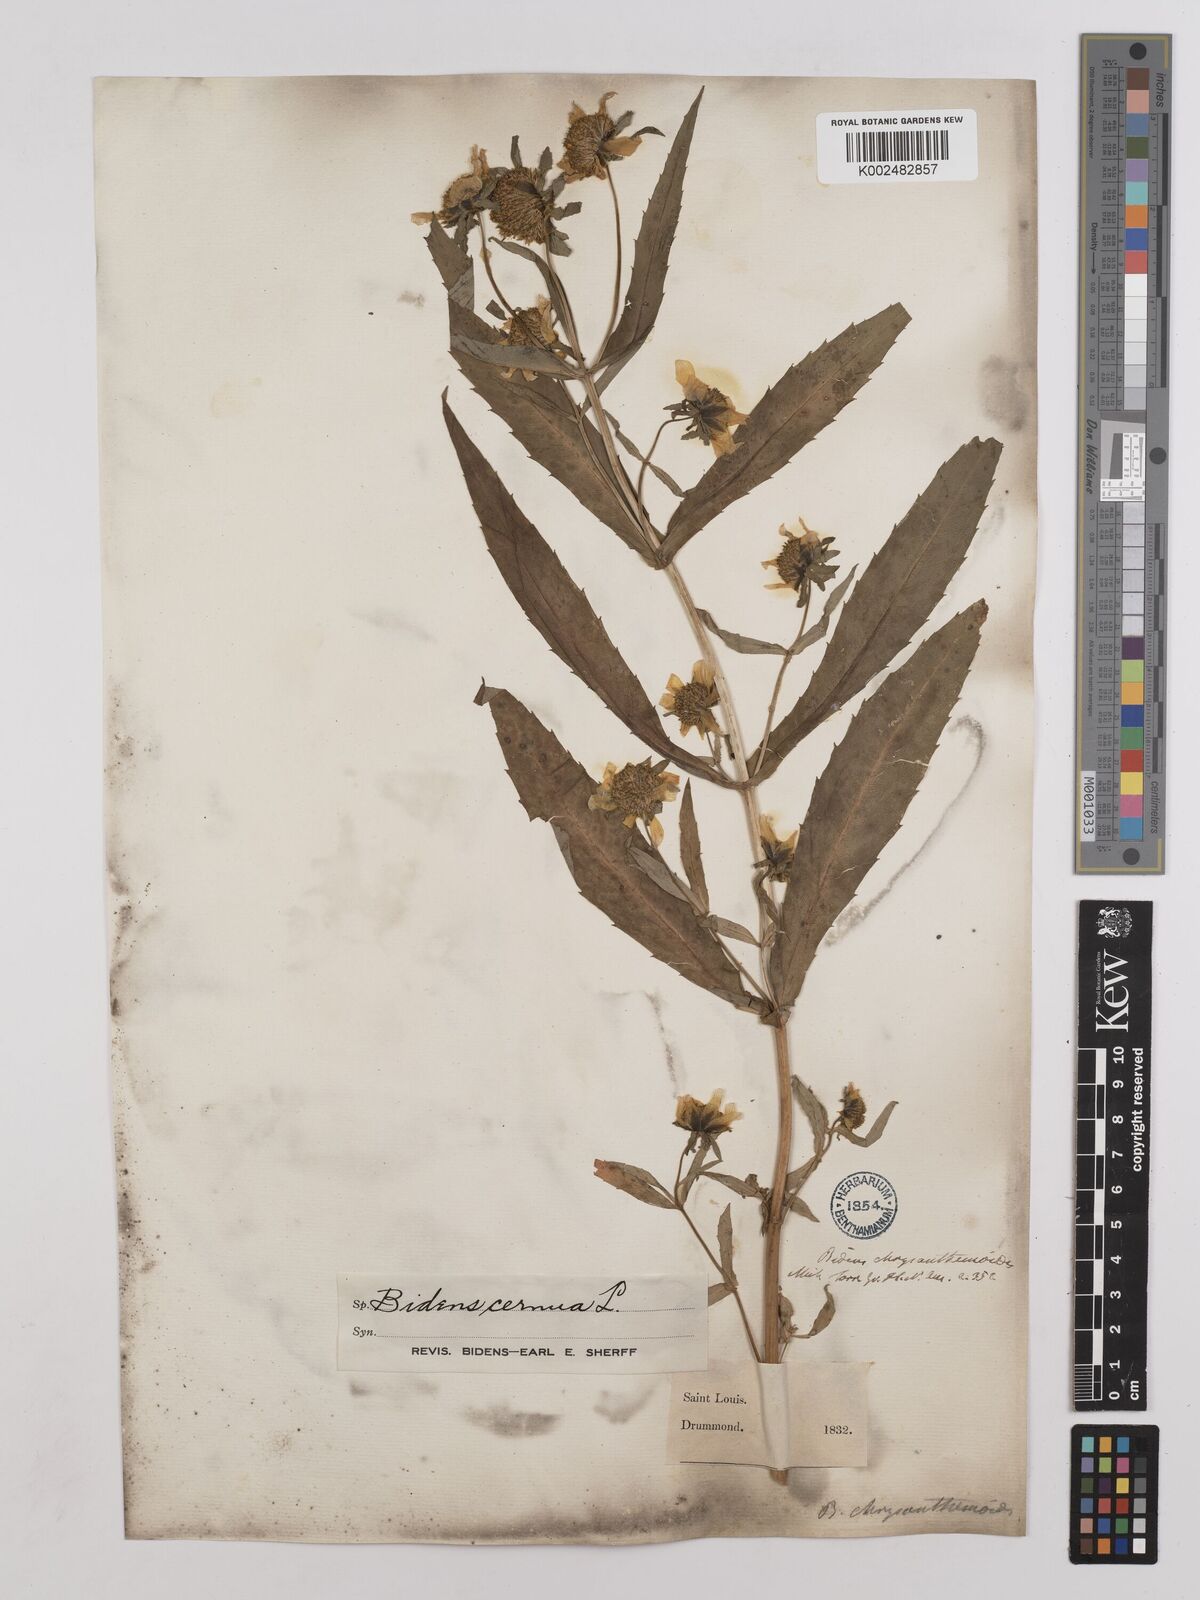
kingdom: Plantae
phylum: Tracheophyta
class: Magnoliopsida
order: Asterales
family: Asteraceae
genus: Bidens
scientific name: Bidens
